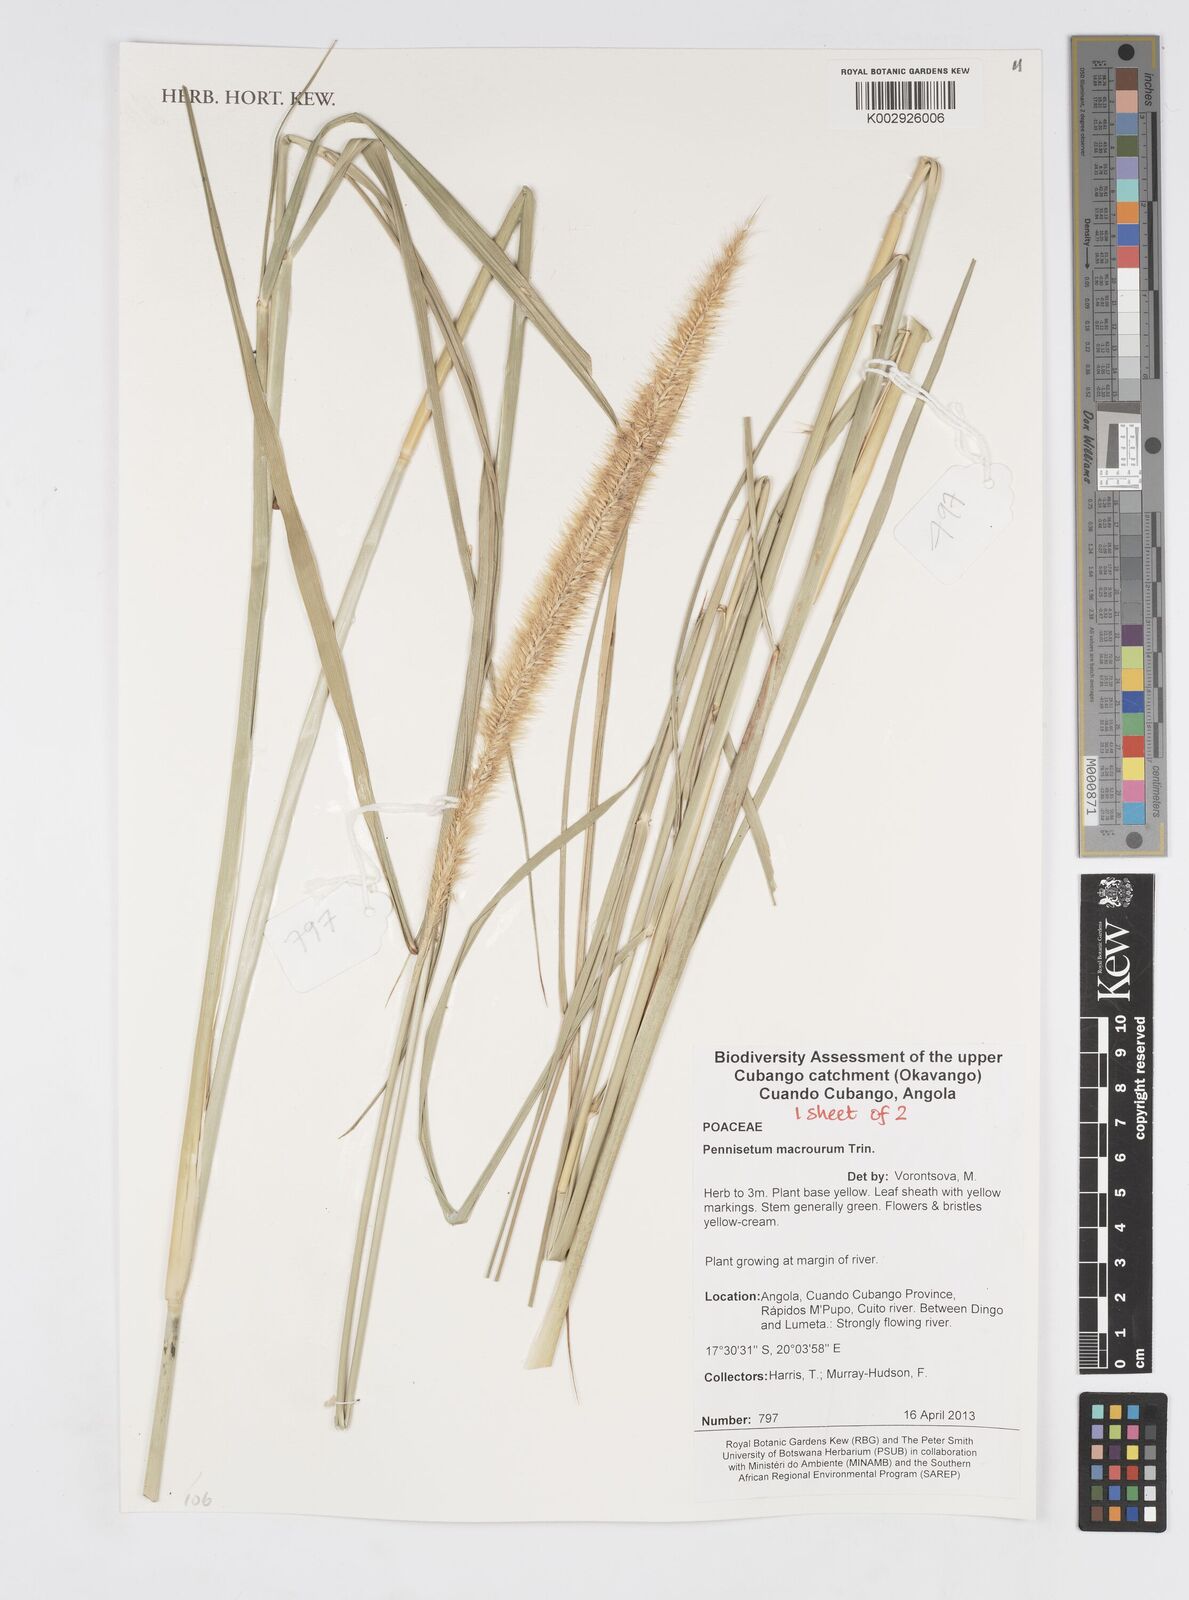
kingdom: Plantae
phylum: Tracheophyta
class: Liliopsida
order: Poales
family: Poaceae
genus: Cenchrus
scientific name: Cenchrus caudatus
